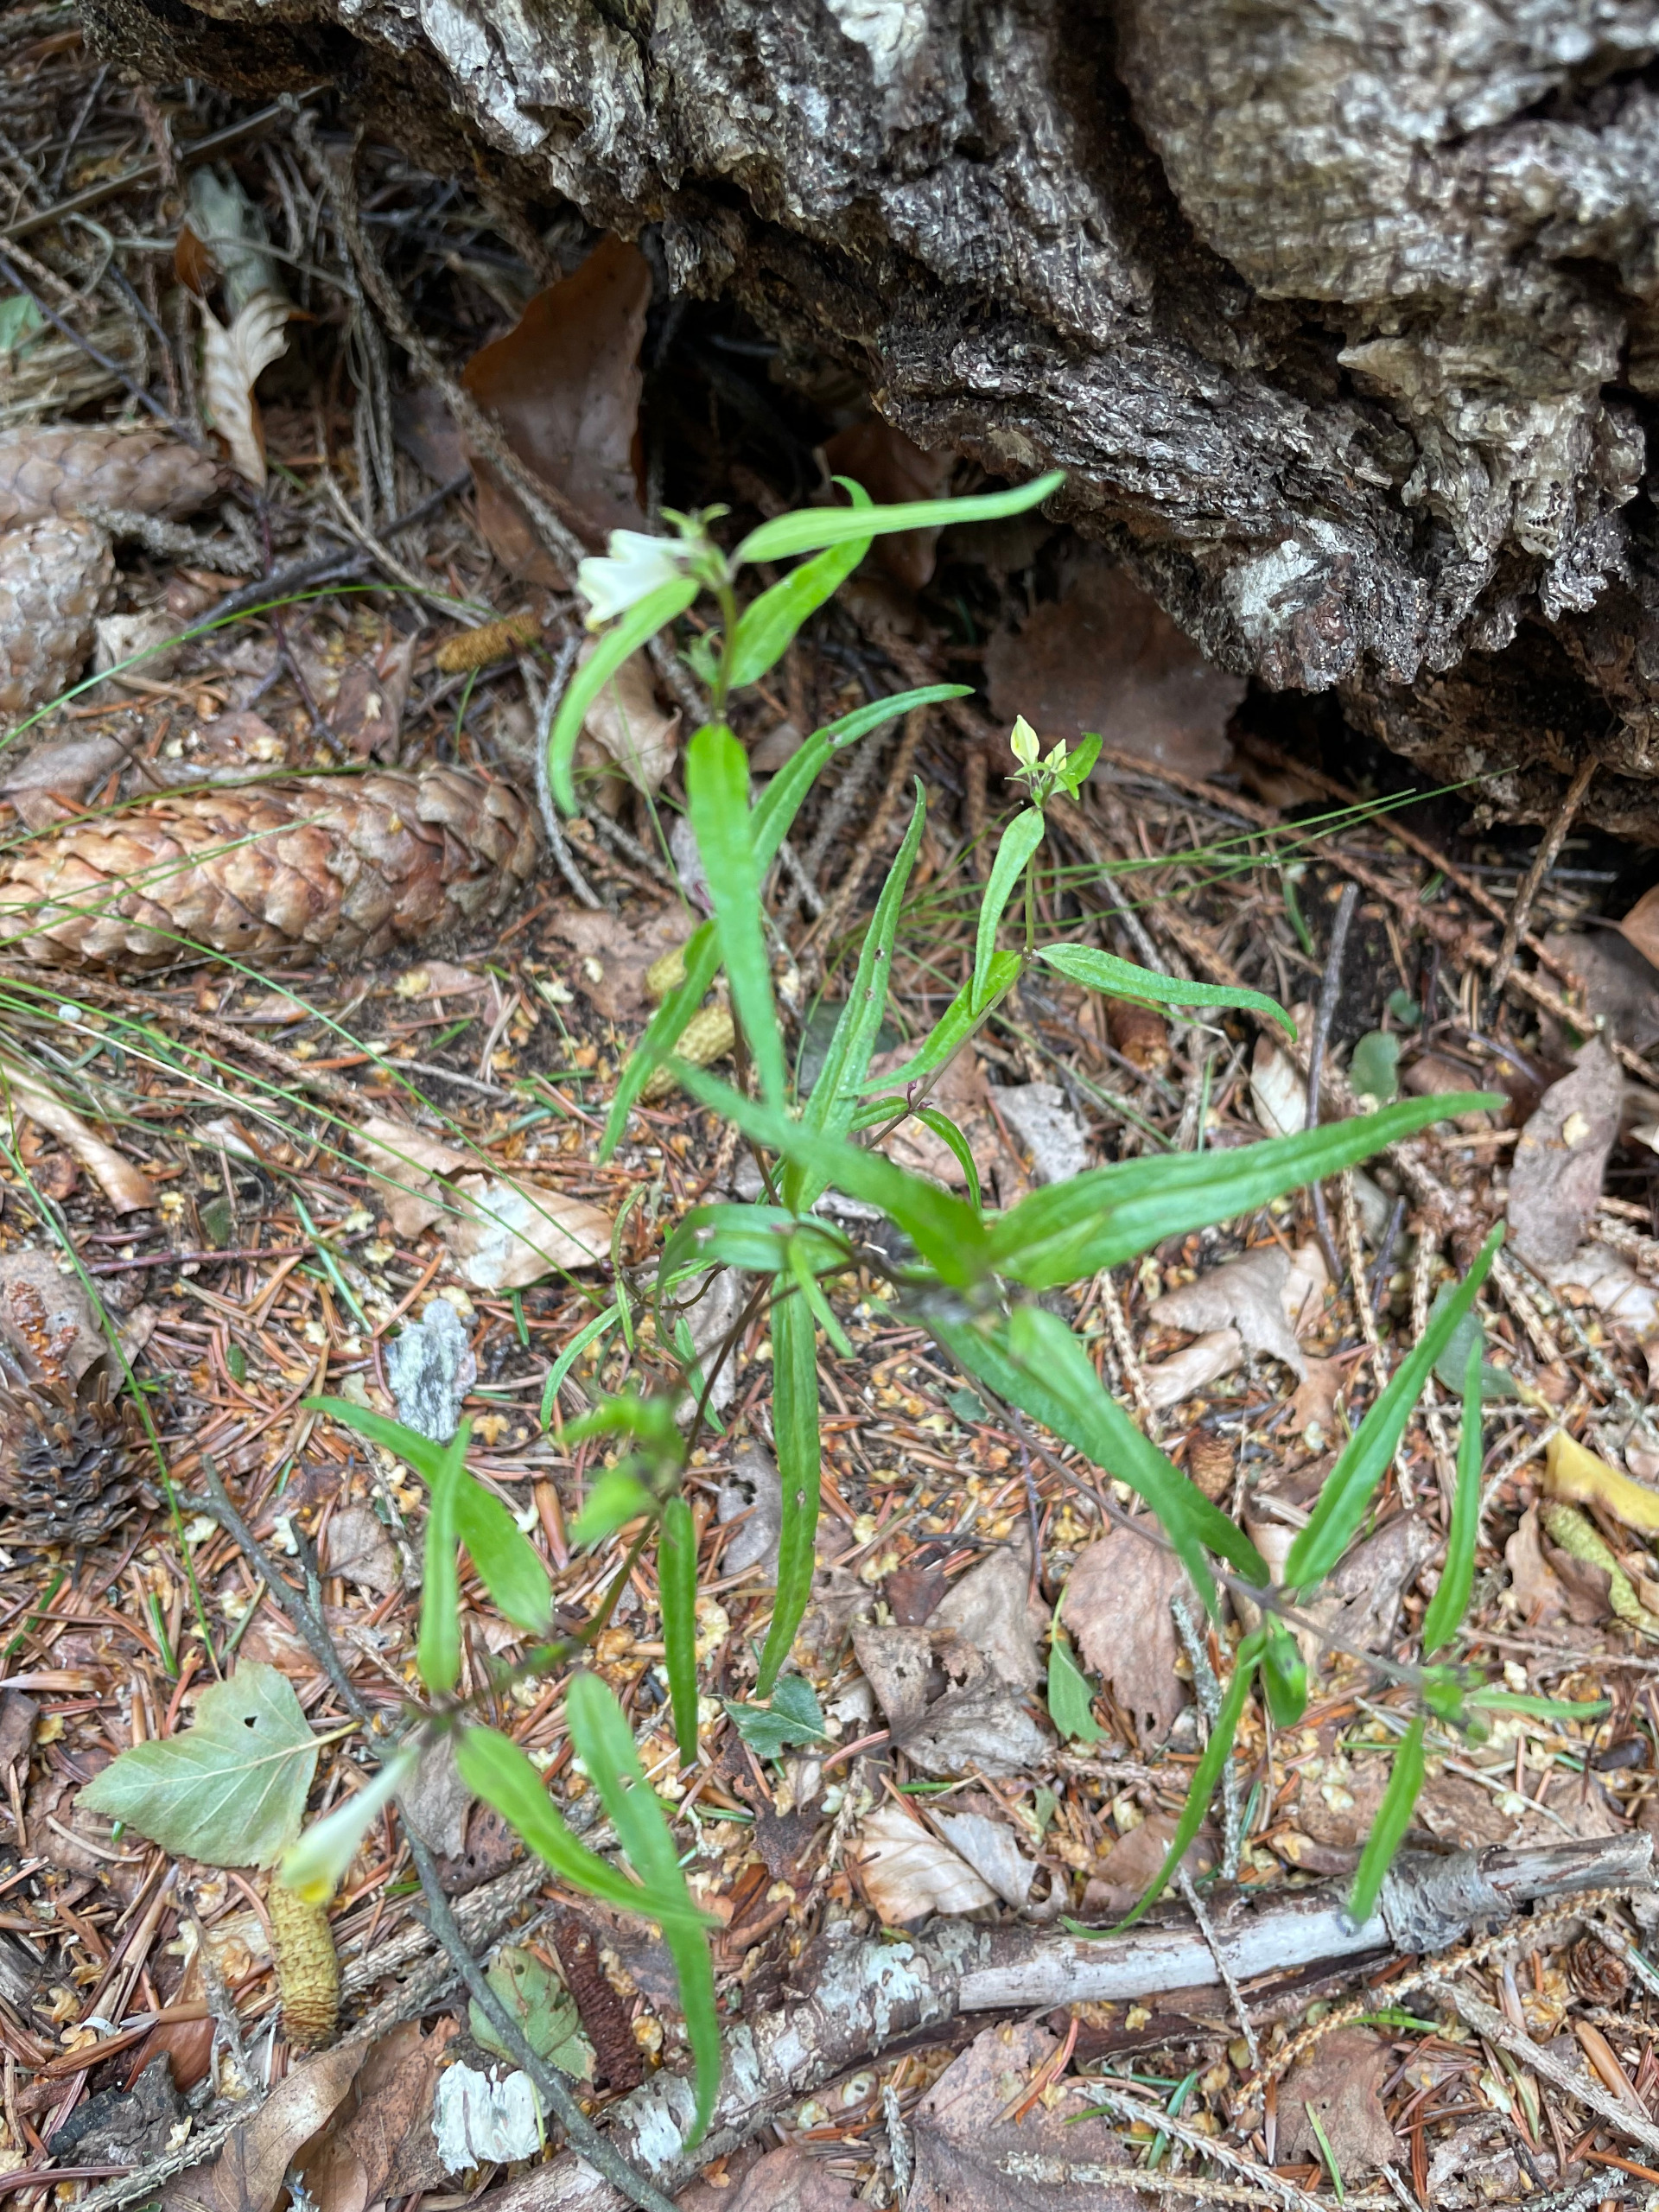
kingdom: Plantae
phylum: Tracheophyta
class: Magnoliopsida
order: Lamiales
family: Orobanchaceae
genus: Melampyrum
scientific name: Melampyrum pratense
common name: Almindelig kohvede
